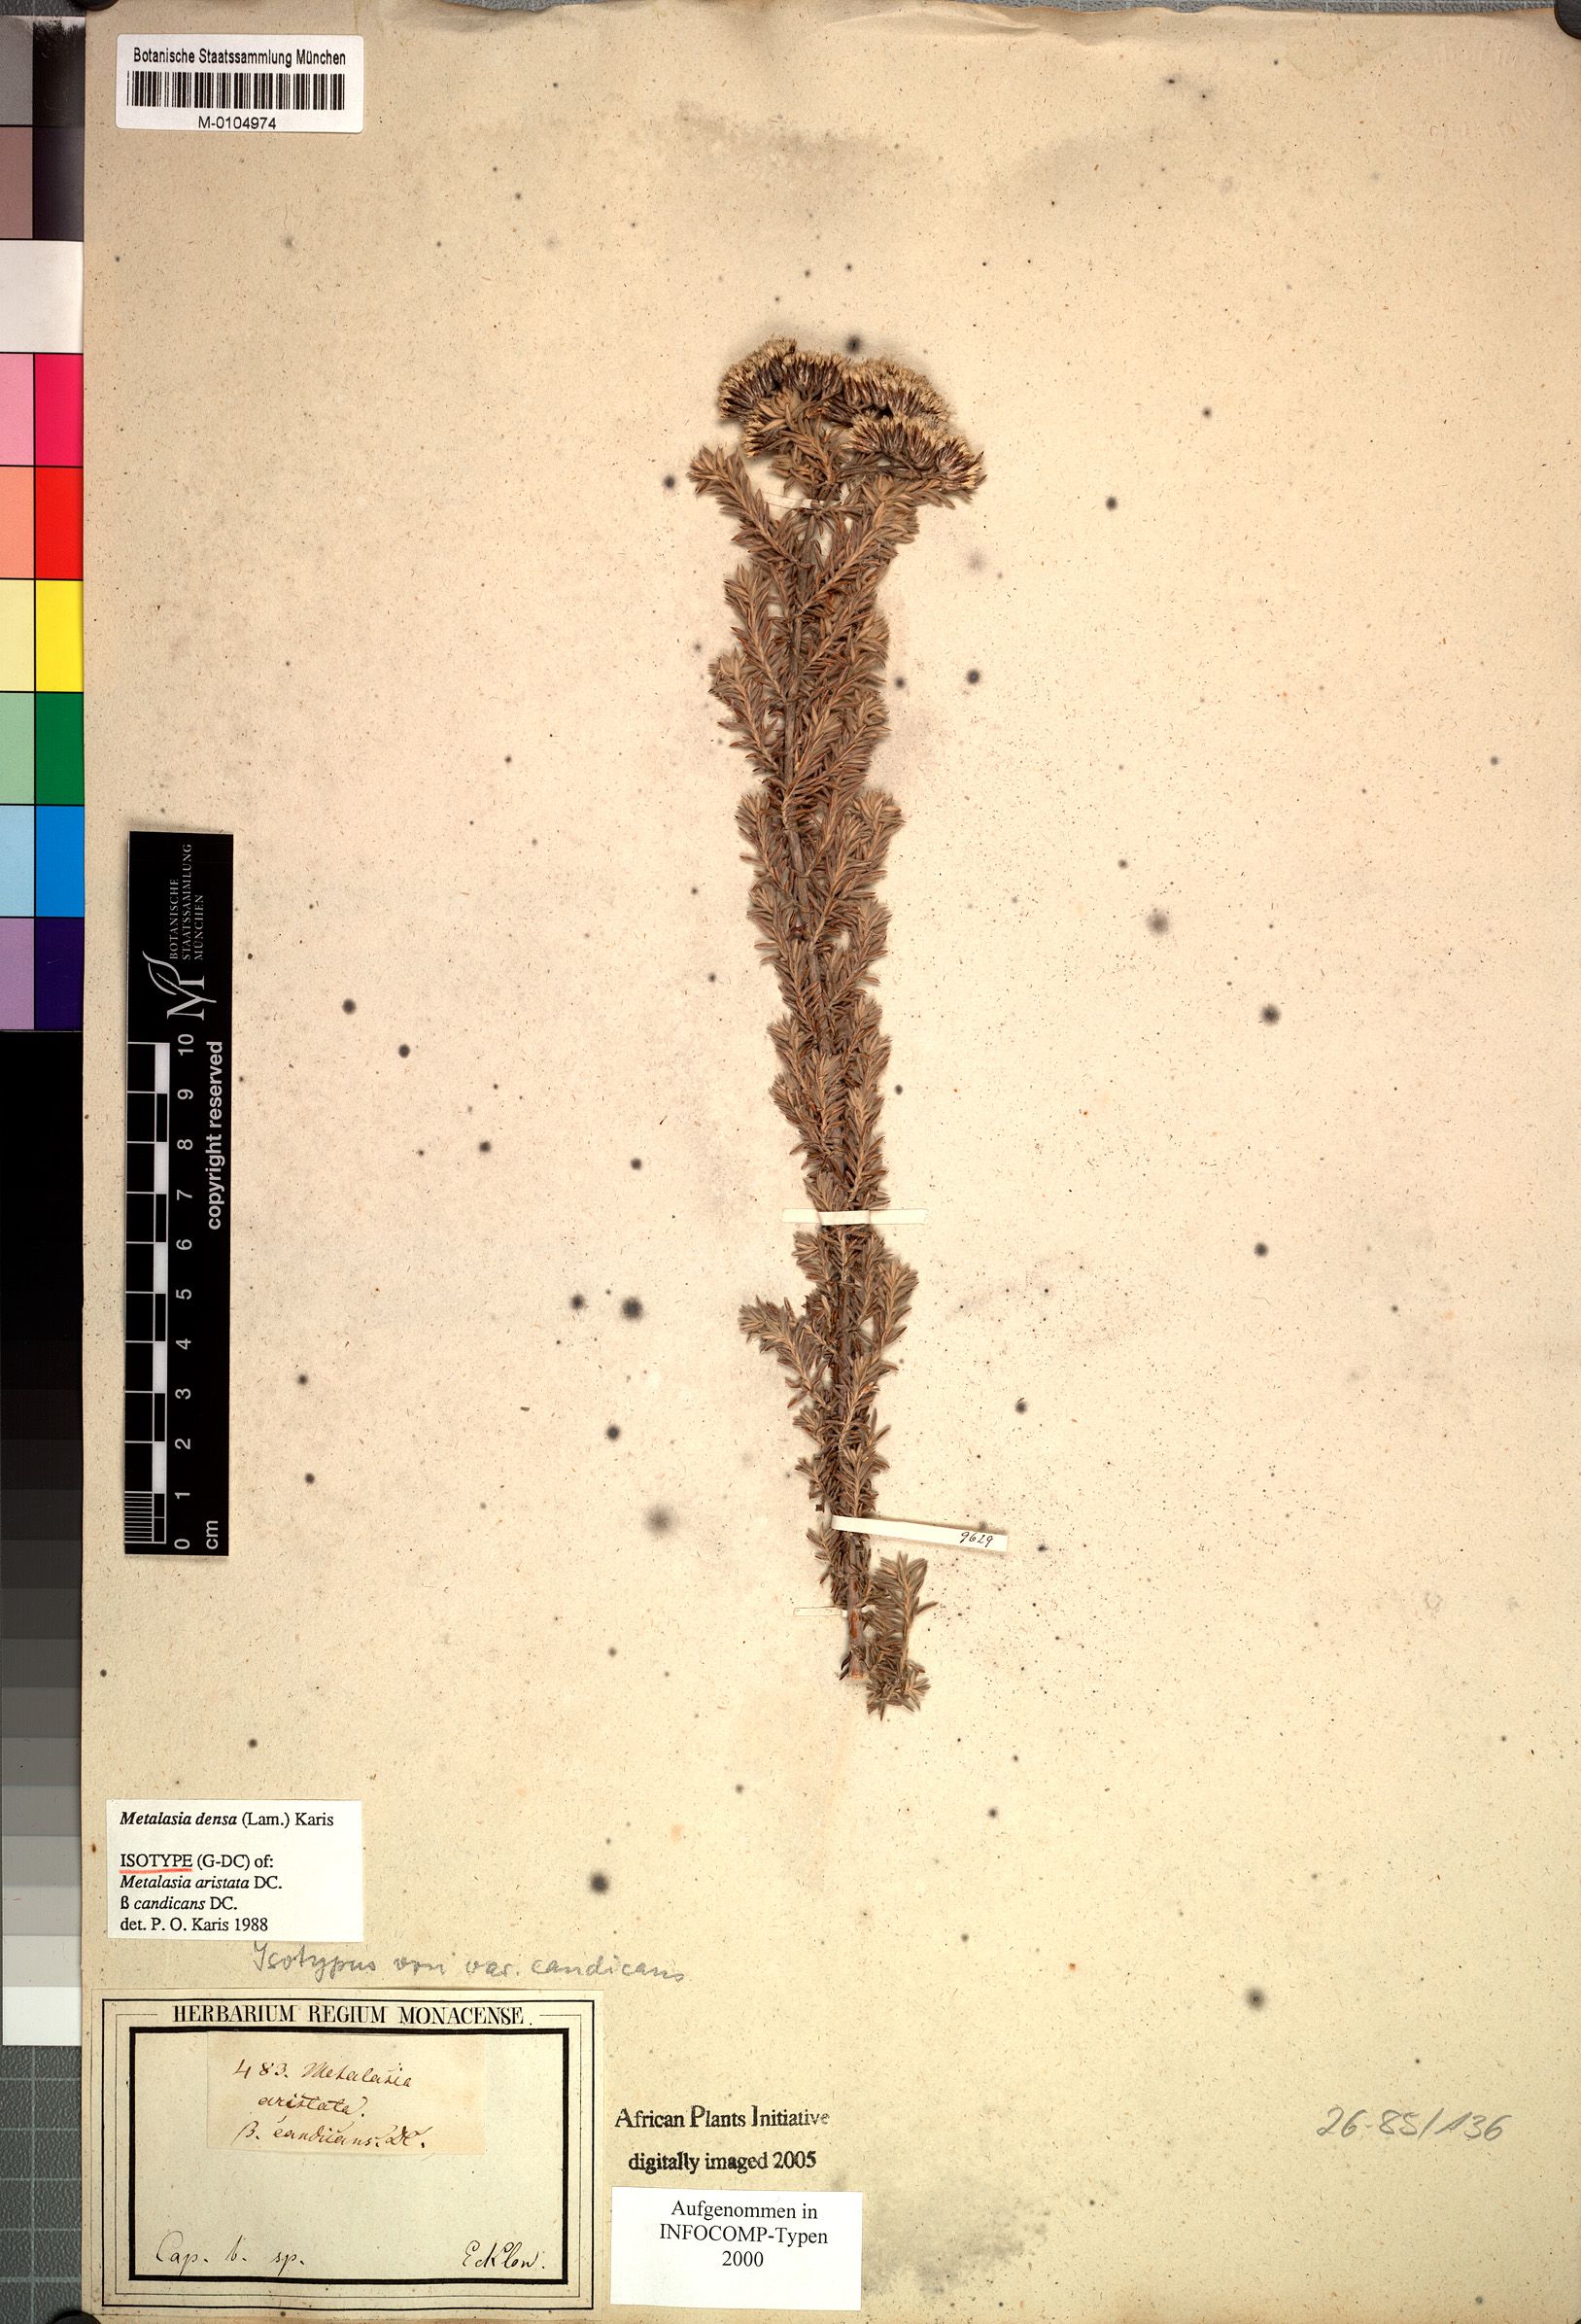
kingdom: Plantae
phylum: Tracheophyta
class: Magnoliopsida
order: Asterales
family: Asteraceae
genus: Metalasia
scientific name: Metalasia densa
